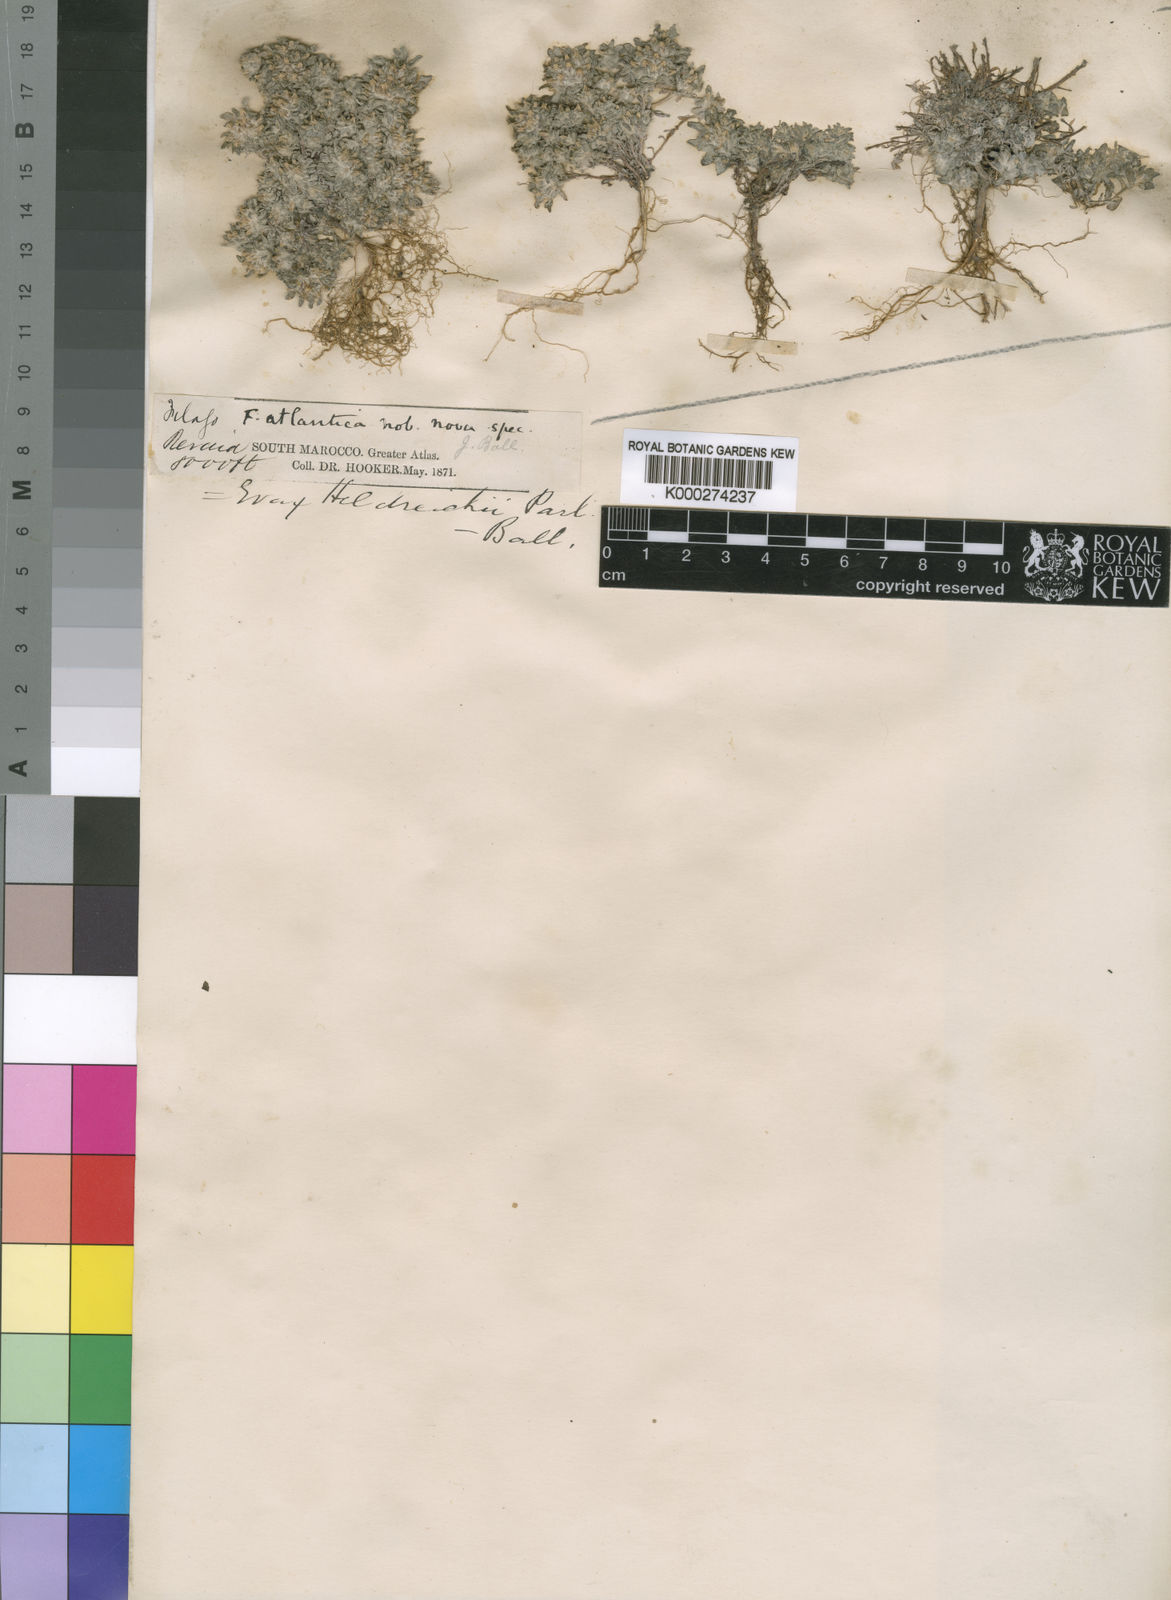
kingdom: Plantae
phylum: Tracheophyta
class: Magnoliopsida
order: Asterales
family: Asteraceae
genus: Filago
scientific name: Filago discolor
